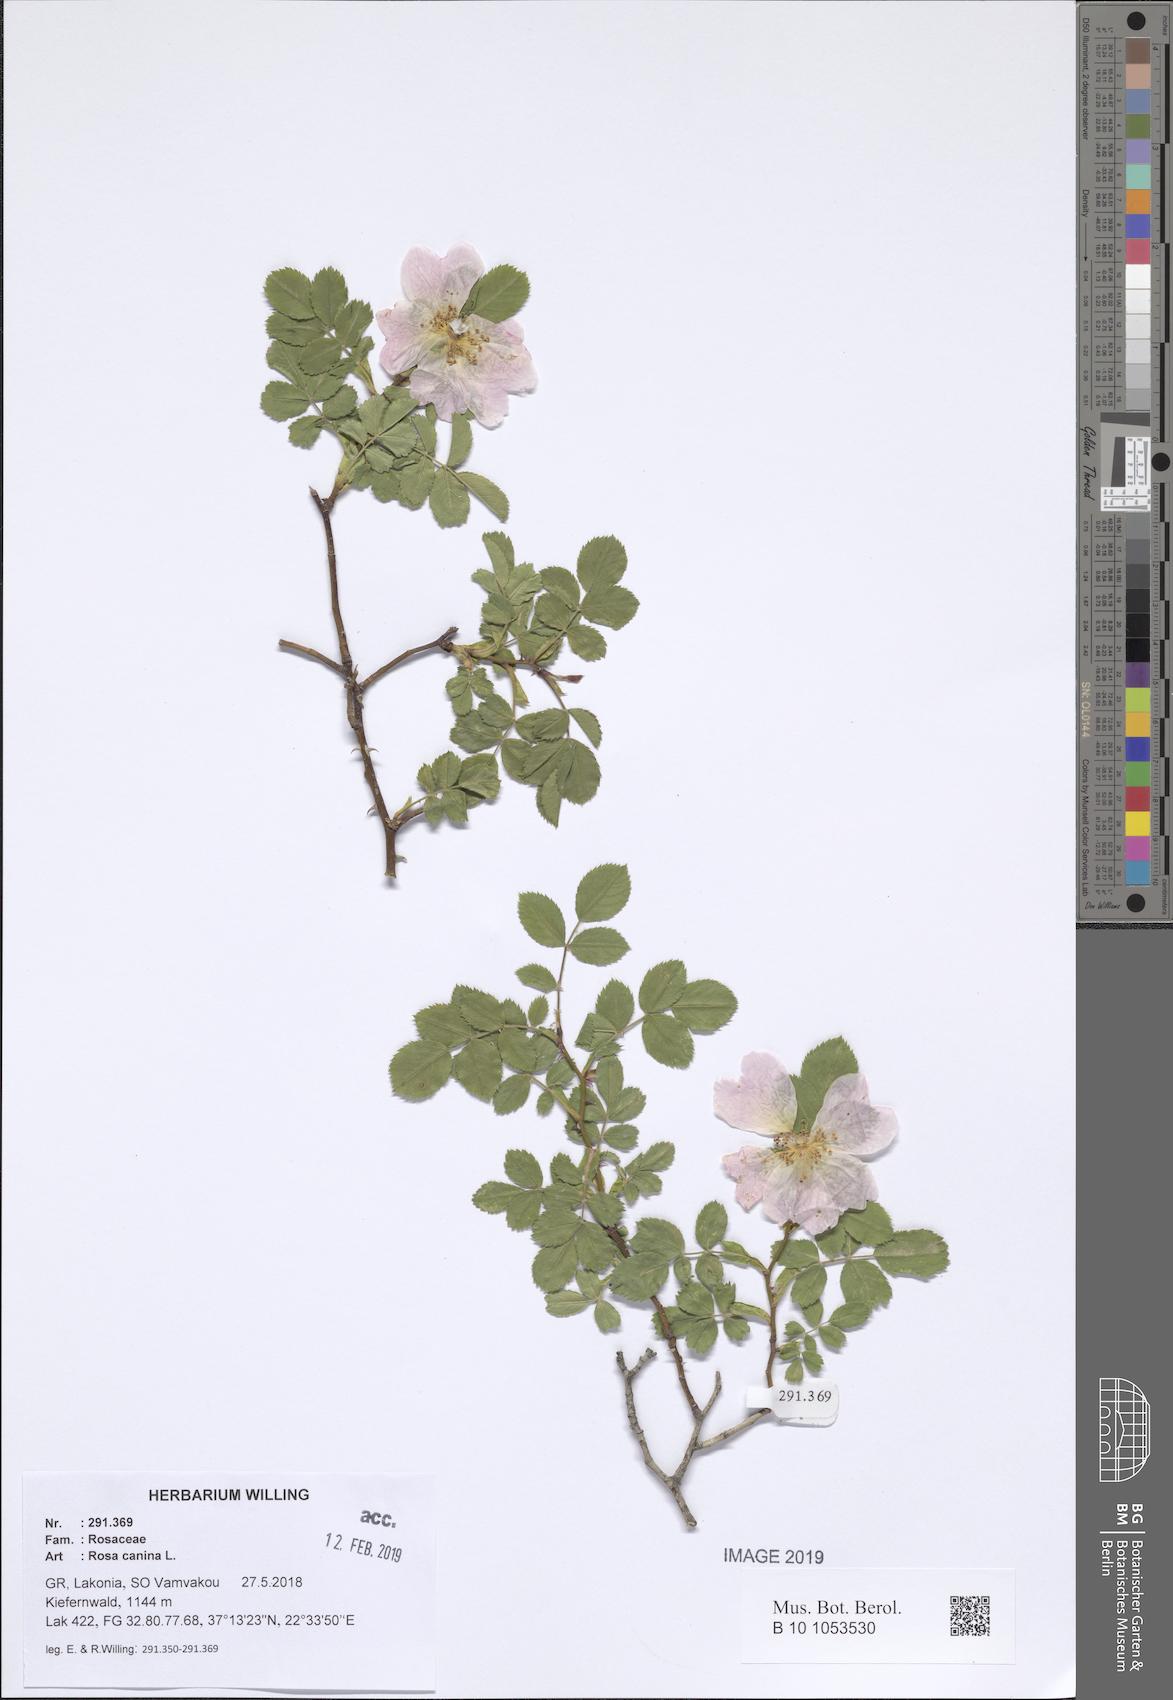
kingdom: Plantae
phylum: Tracheophyta
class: Magnoliopsida
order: Rosales
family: Rosaceae
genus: Rosa
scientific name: Rosa canina
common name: Dog rose
